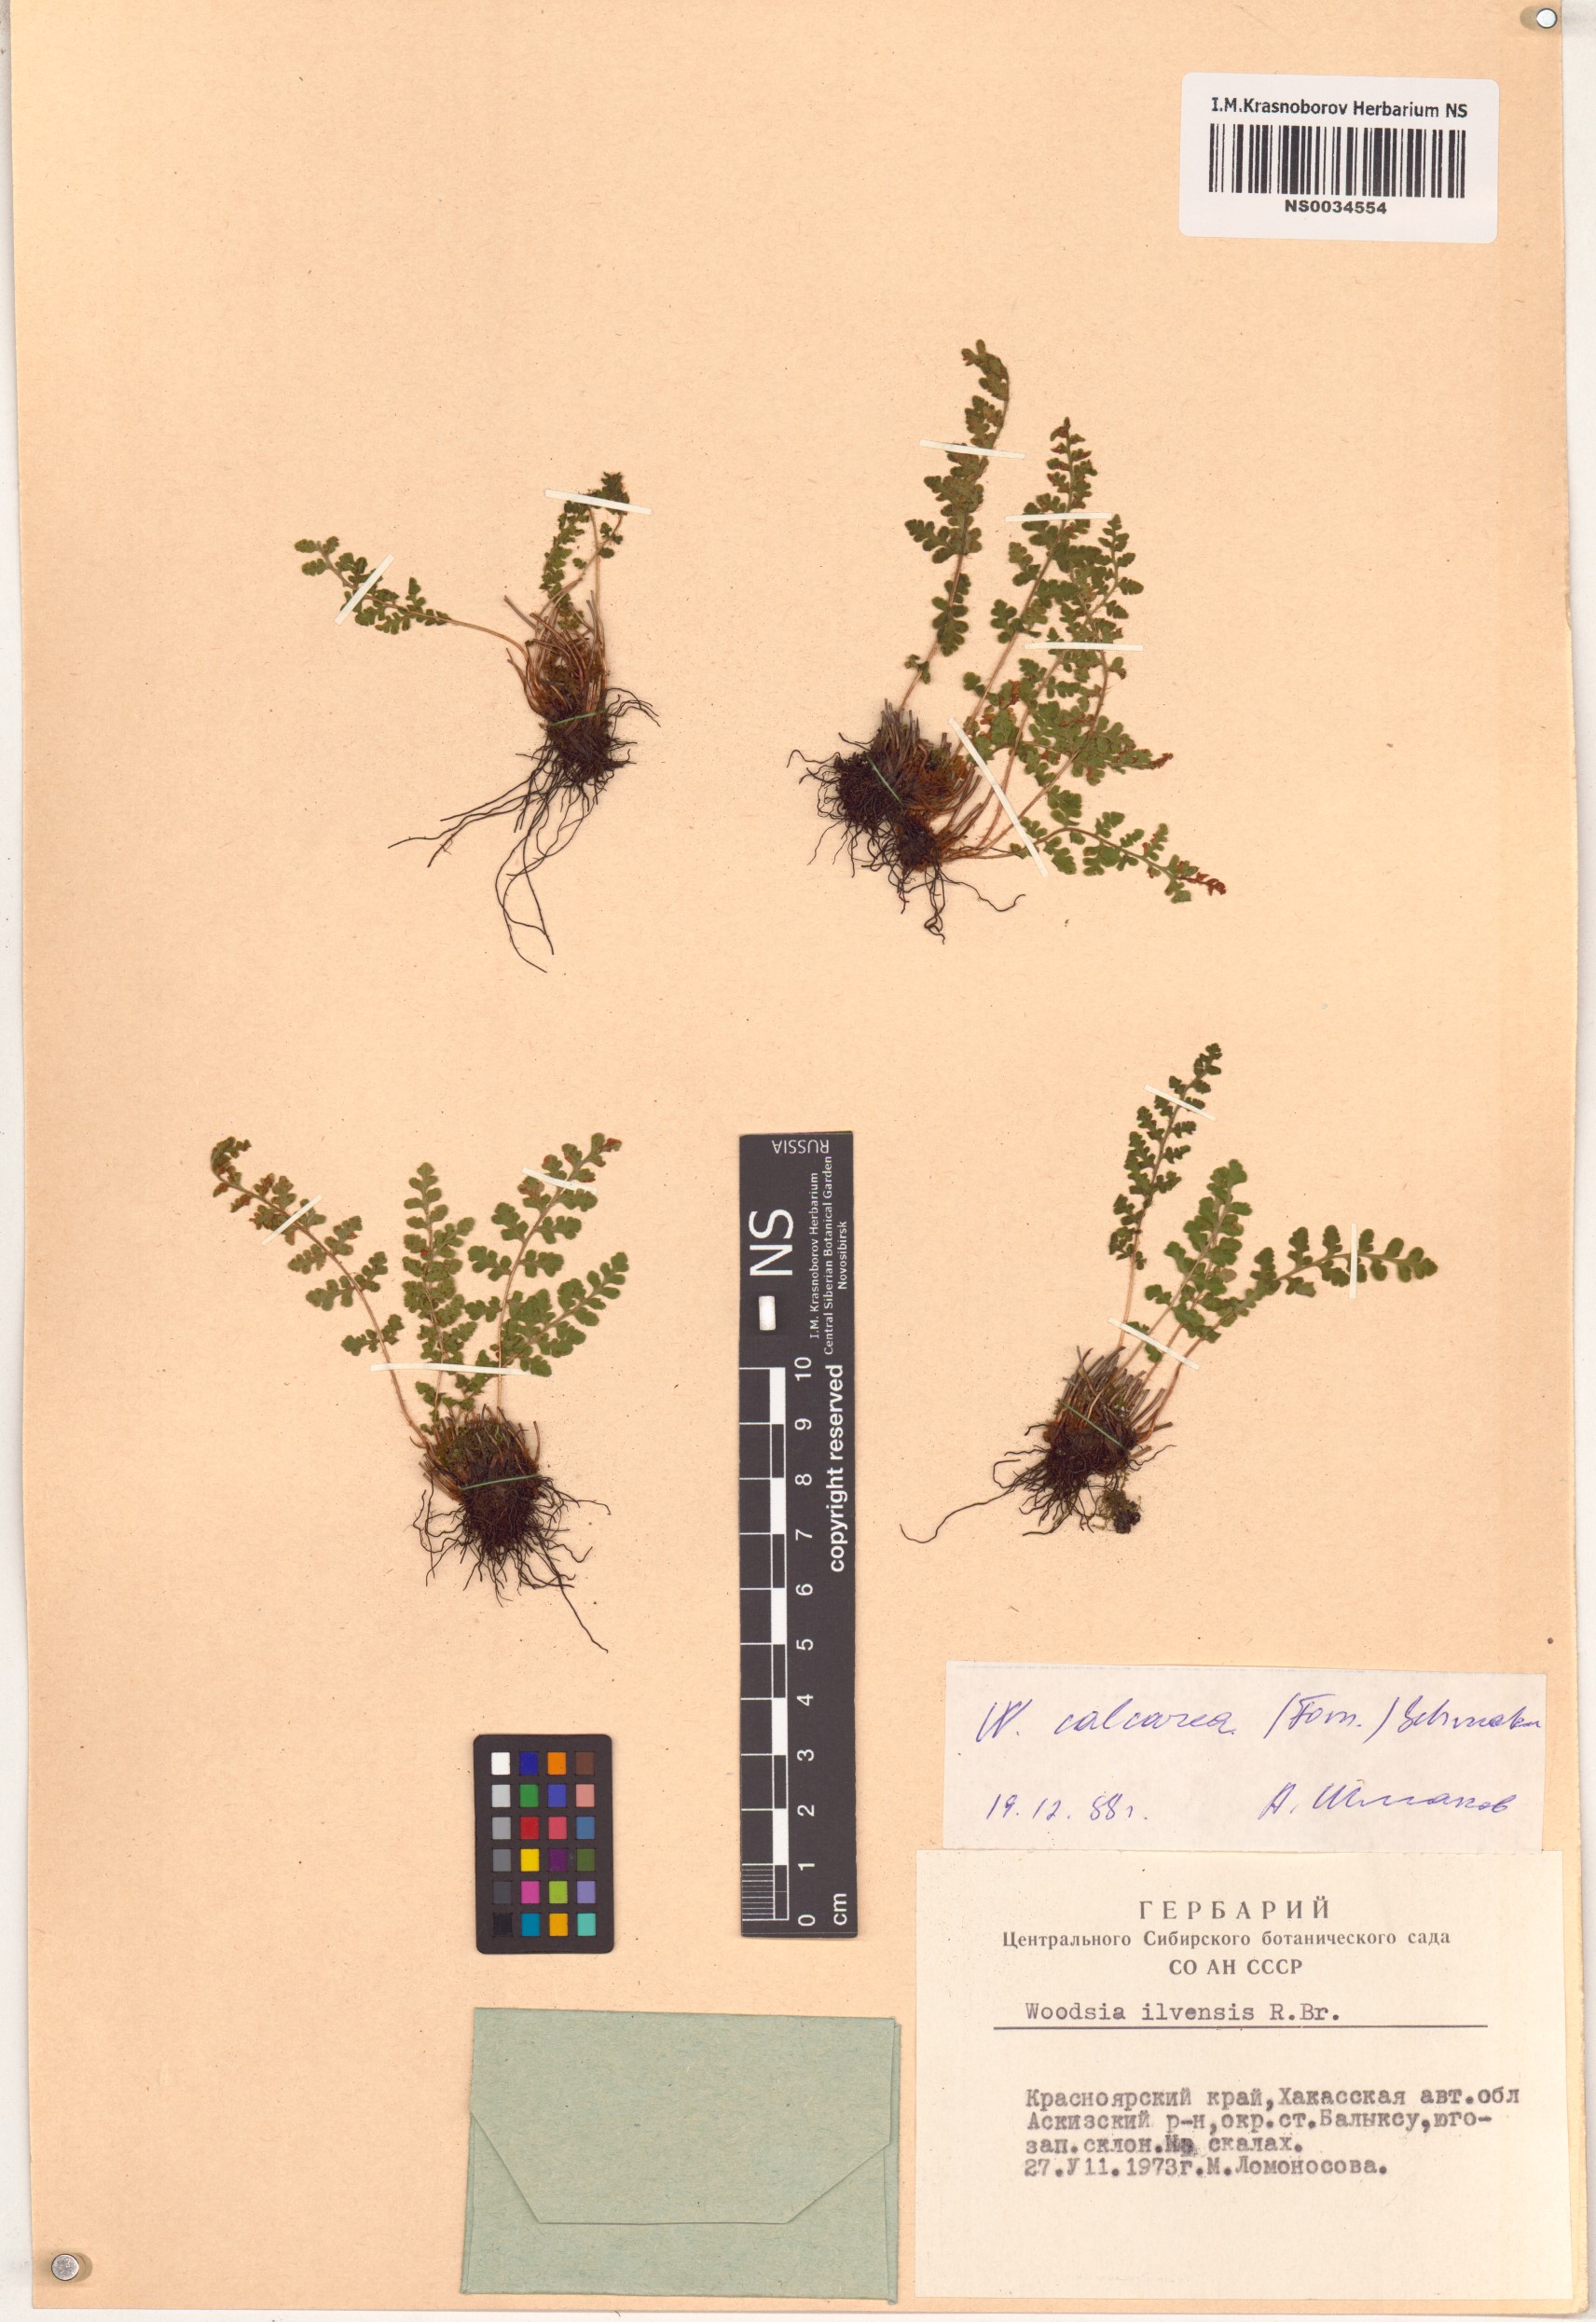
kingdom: Plantae
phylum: Tracheophyta
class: Polypodiopsida
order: Polypodiales
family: Woodsiaceae
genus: Woodsia
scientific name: Woodsia calcarea
